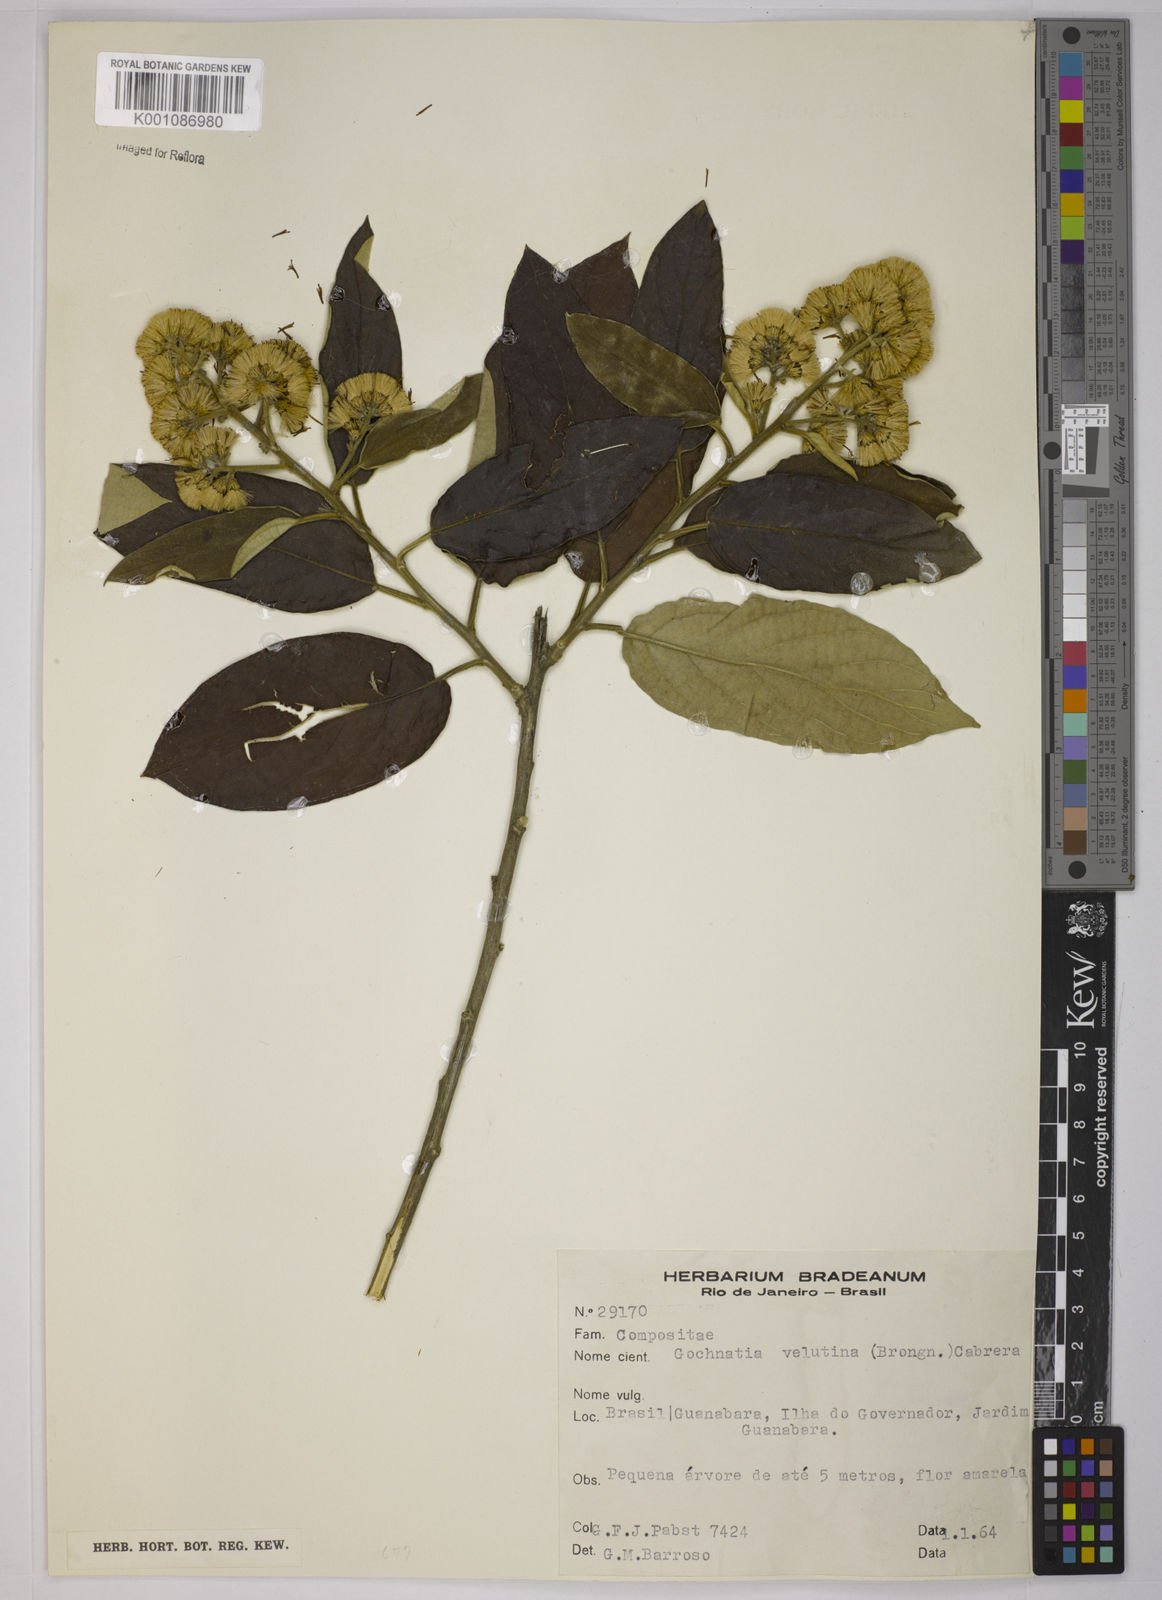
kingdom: Plantae
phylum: Tracheophyta
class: Magnoliopsida
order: Asterales
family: Asteraceae
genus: Moquiniastrum
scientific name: Moquiniastrum polymorphum
